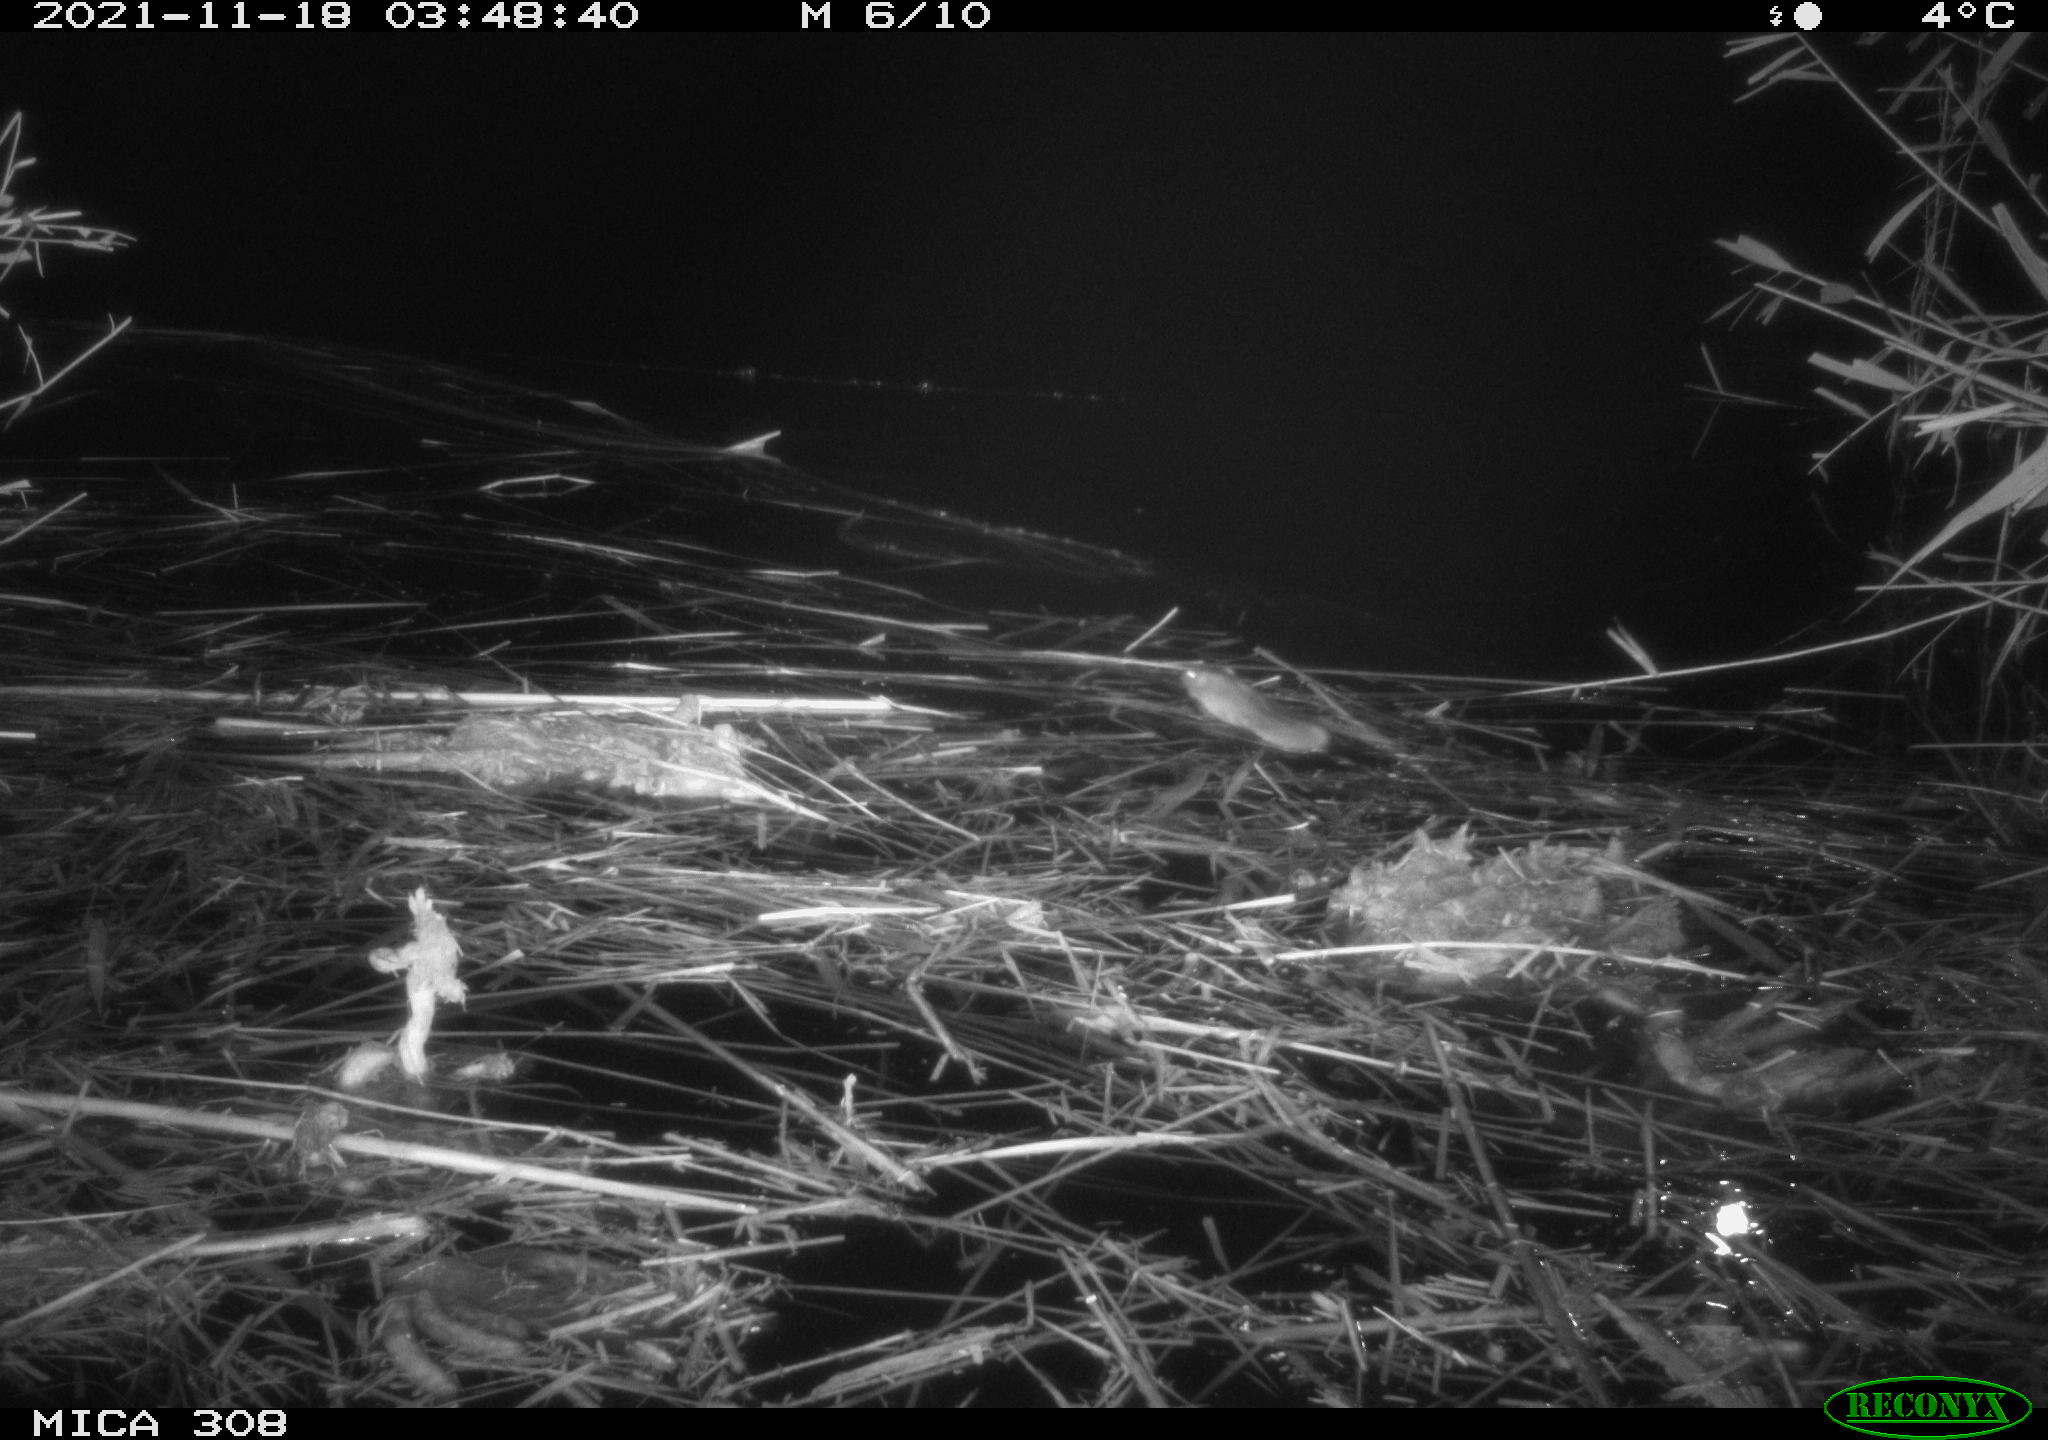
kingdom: Animalia
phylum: Chordata
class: Mammalia
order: Rodentia
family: Muridae
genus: Rattus
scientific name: Rattus norvegicus
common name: Brown rat
